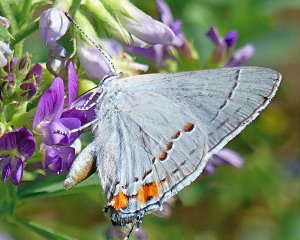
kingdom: Animalia
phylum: Arthropoda
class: Insecta
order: Lepidoptera
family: Lycaenidae
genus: Strymon
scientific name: Strymon melinus
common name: Gray Hairstreak
